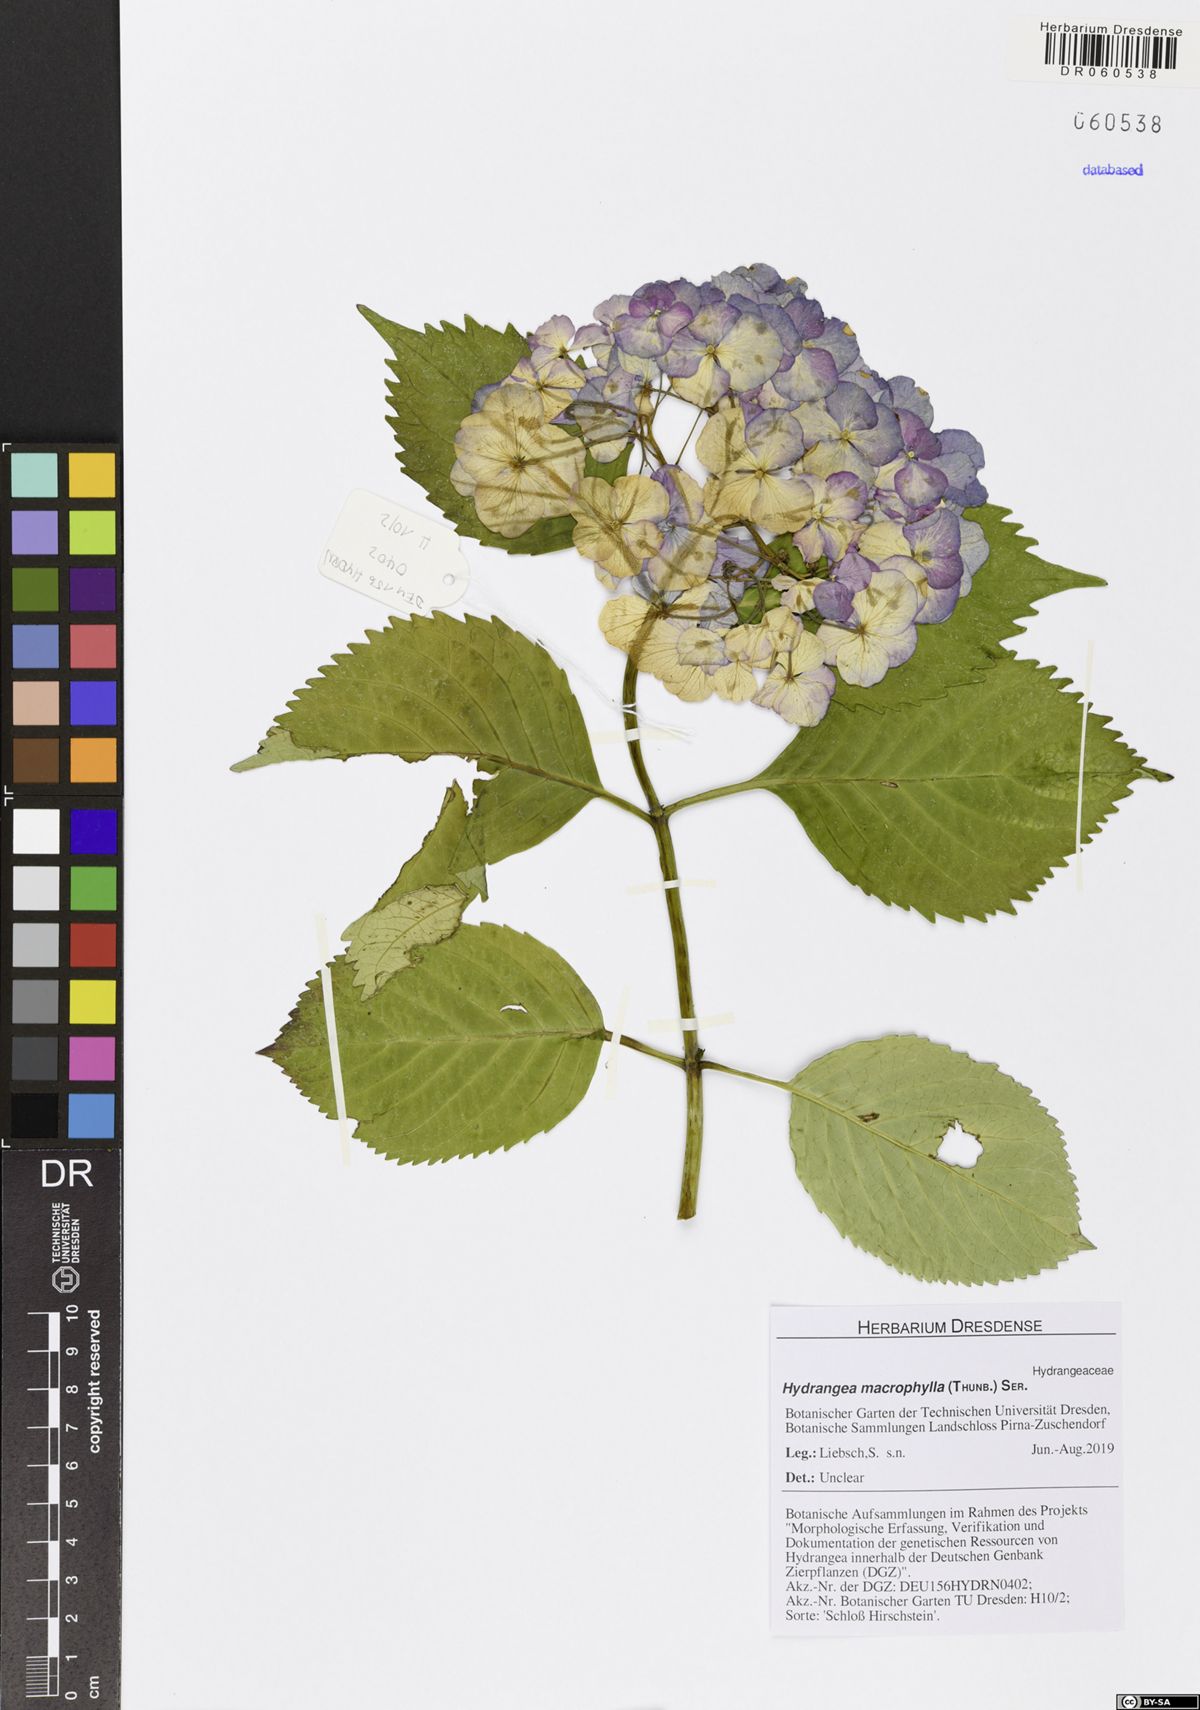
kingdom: Plantae
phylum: Tracheophyta
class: Magnoliopsida
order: Cornales
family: Hydrangeaceae
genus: Hydrangea
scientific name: Hydrangea macrophylla
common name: Hydrangea
